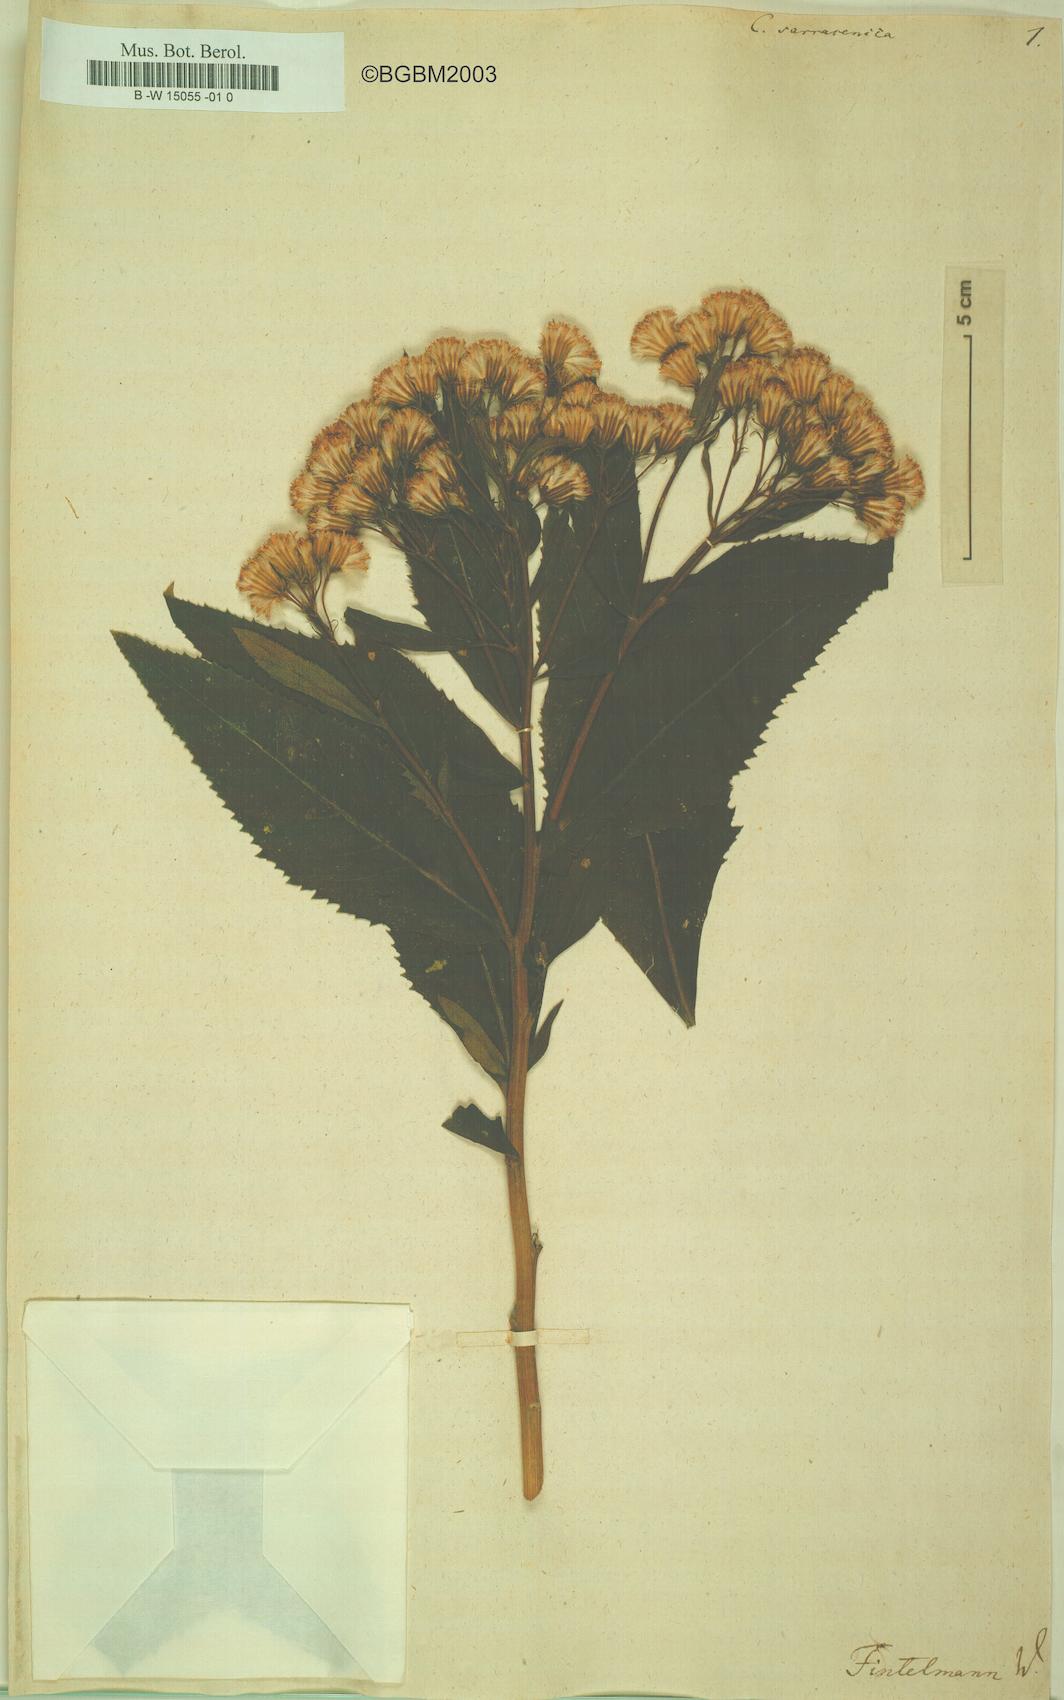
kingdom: Plantae
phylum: Tracheophyta
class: Magnoliopsida
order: Asterales
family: Asteraceae
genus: Senecio
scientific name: Senecio cacaliaster
